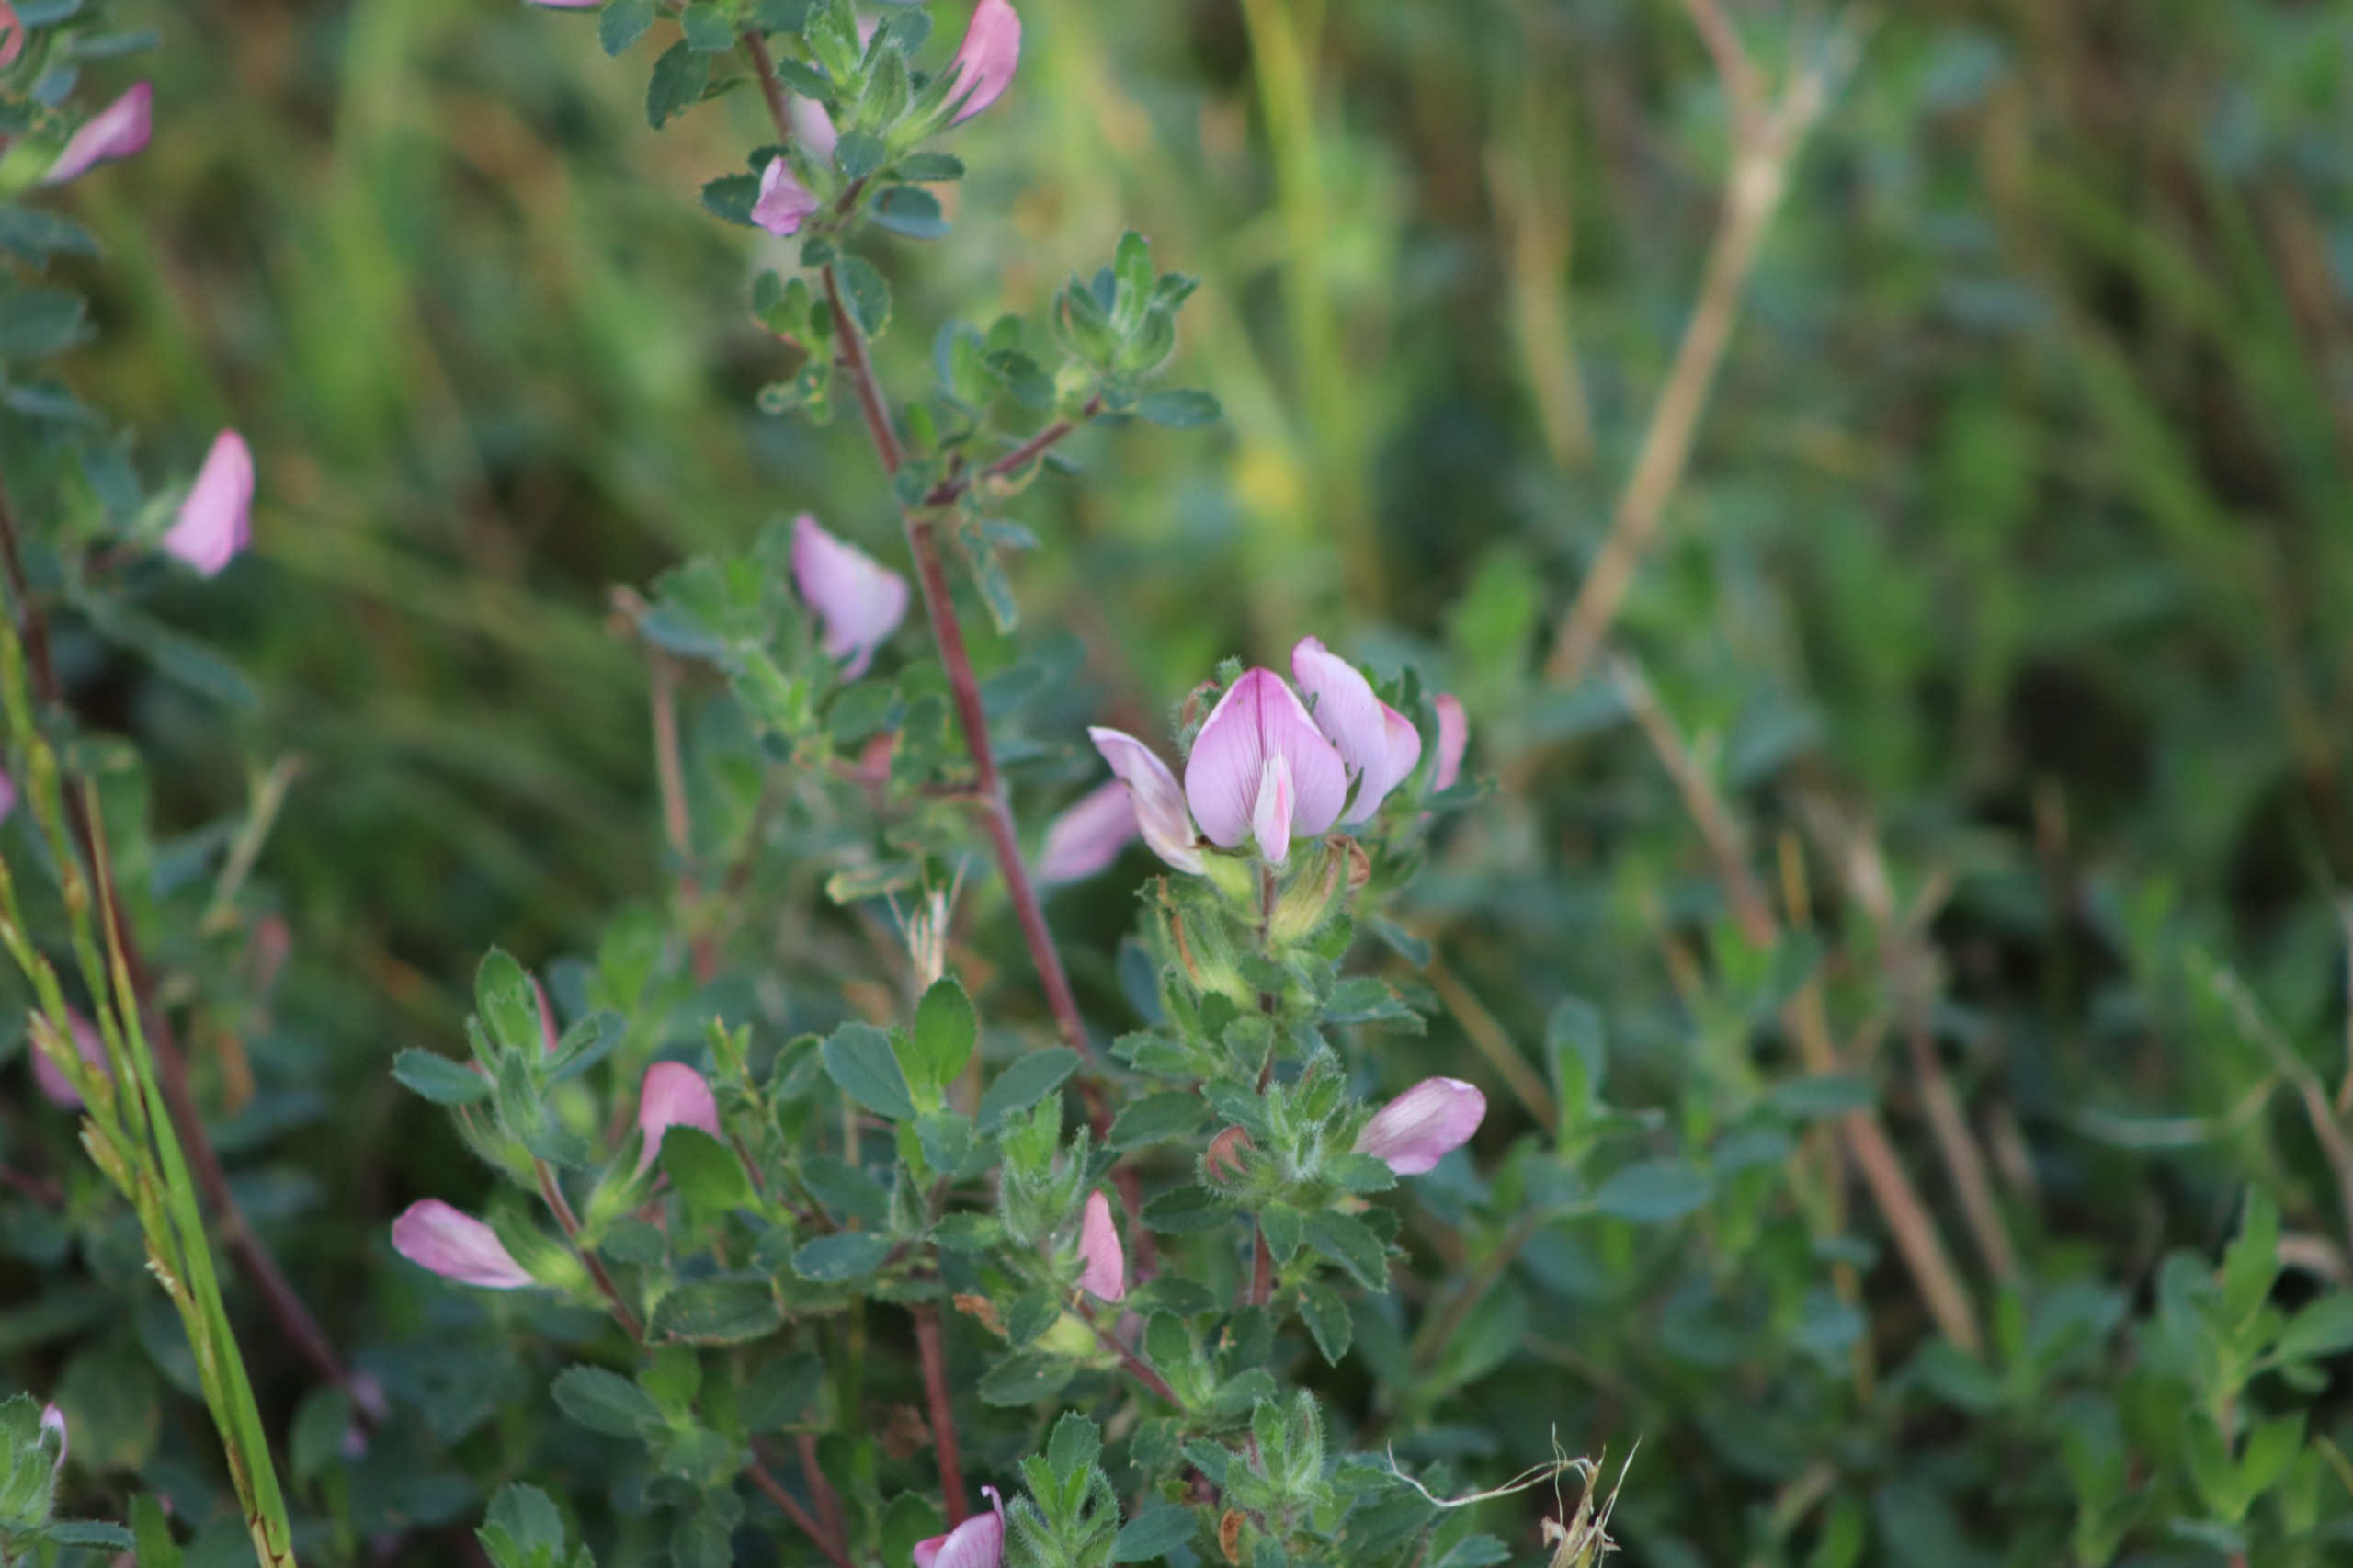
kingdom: Plantae
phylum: Tracheophyta
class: Magnoliopsida
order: Fabales
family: Fabaceae
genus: Ononis
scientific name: Ononis spinosa
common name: Mark-krageklo
